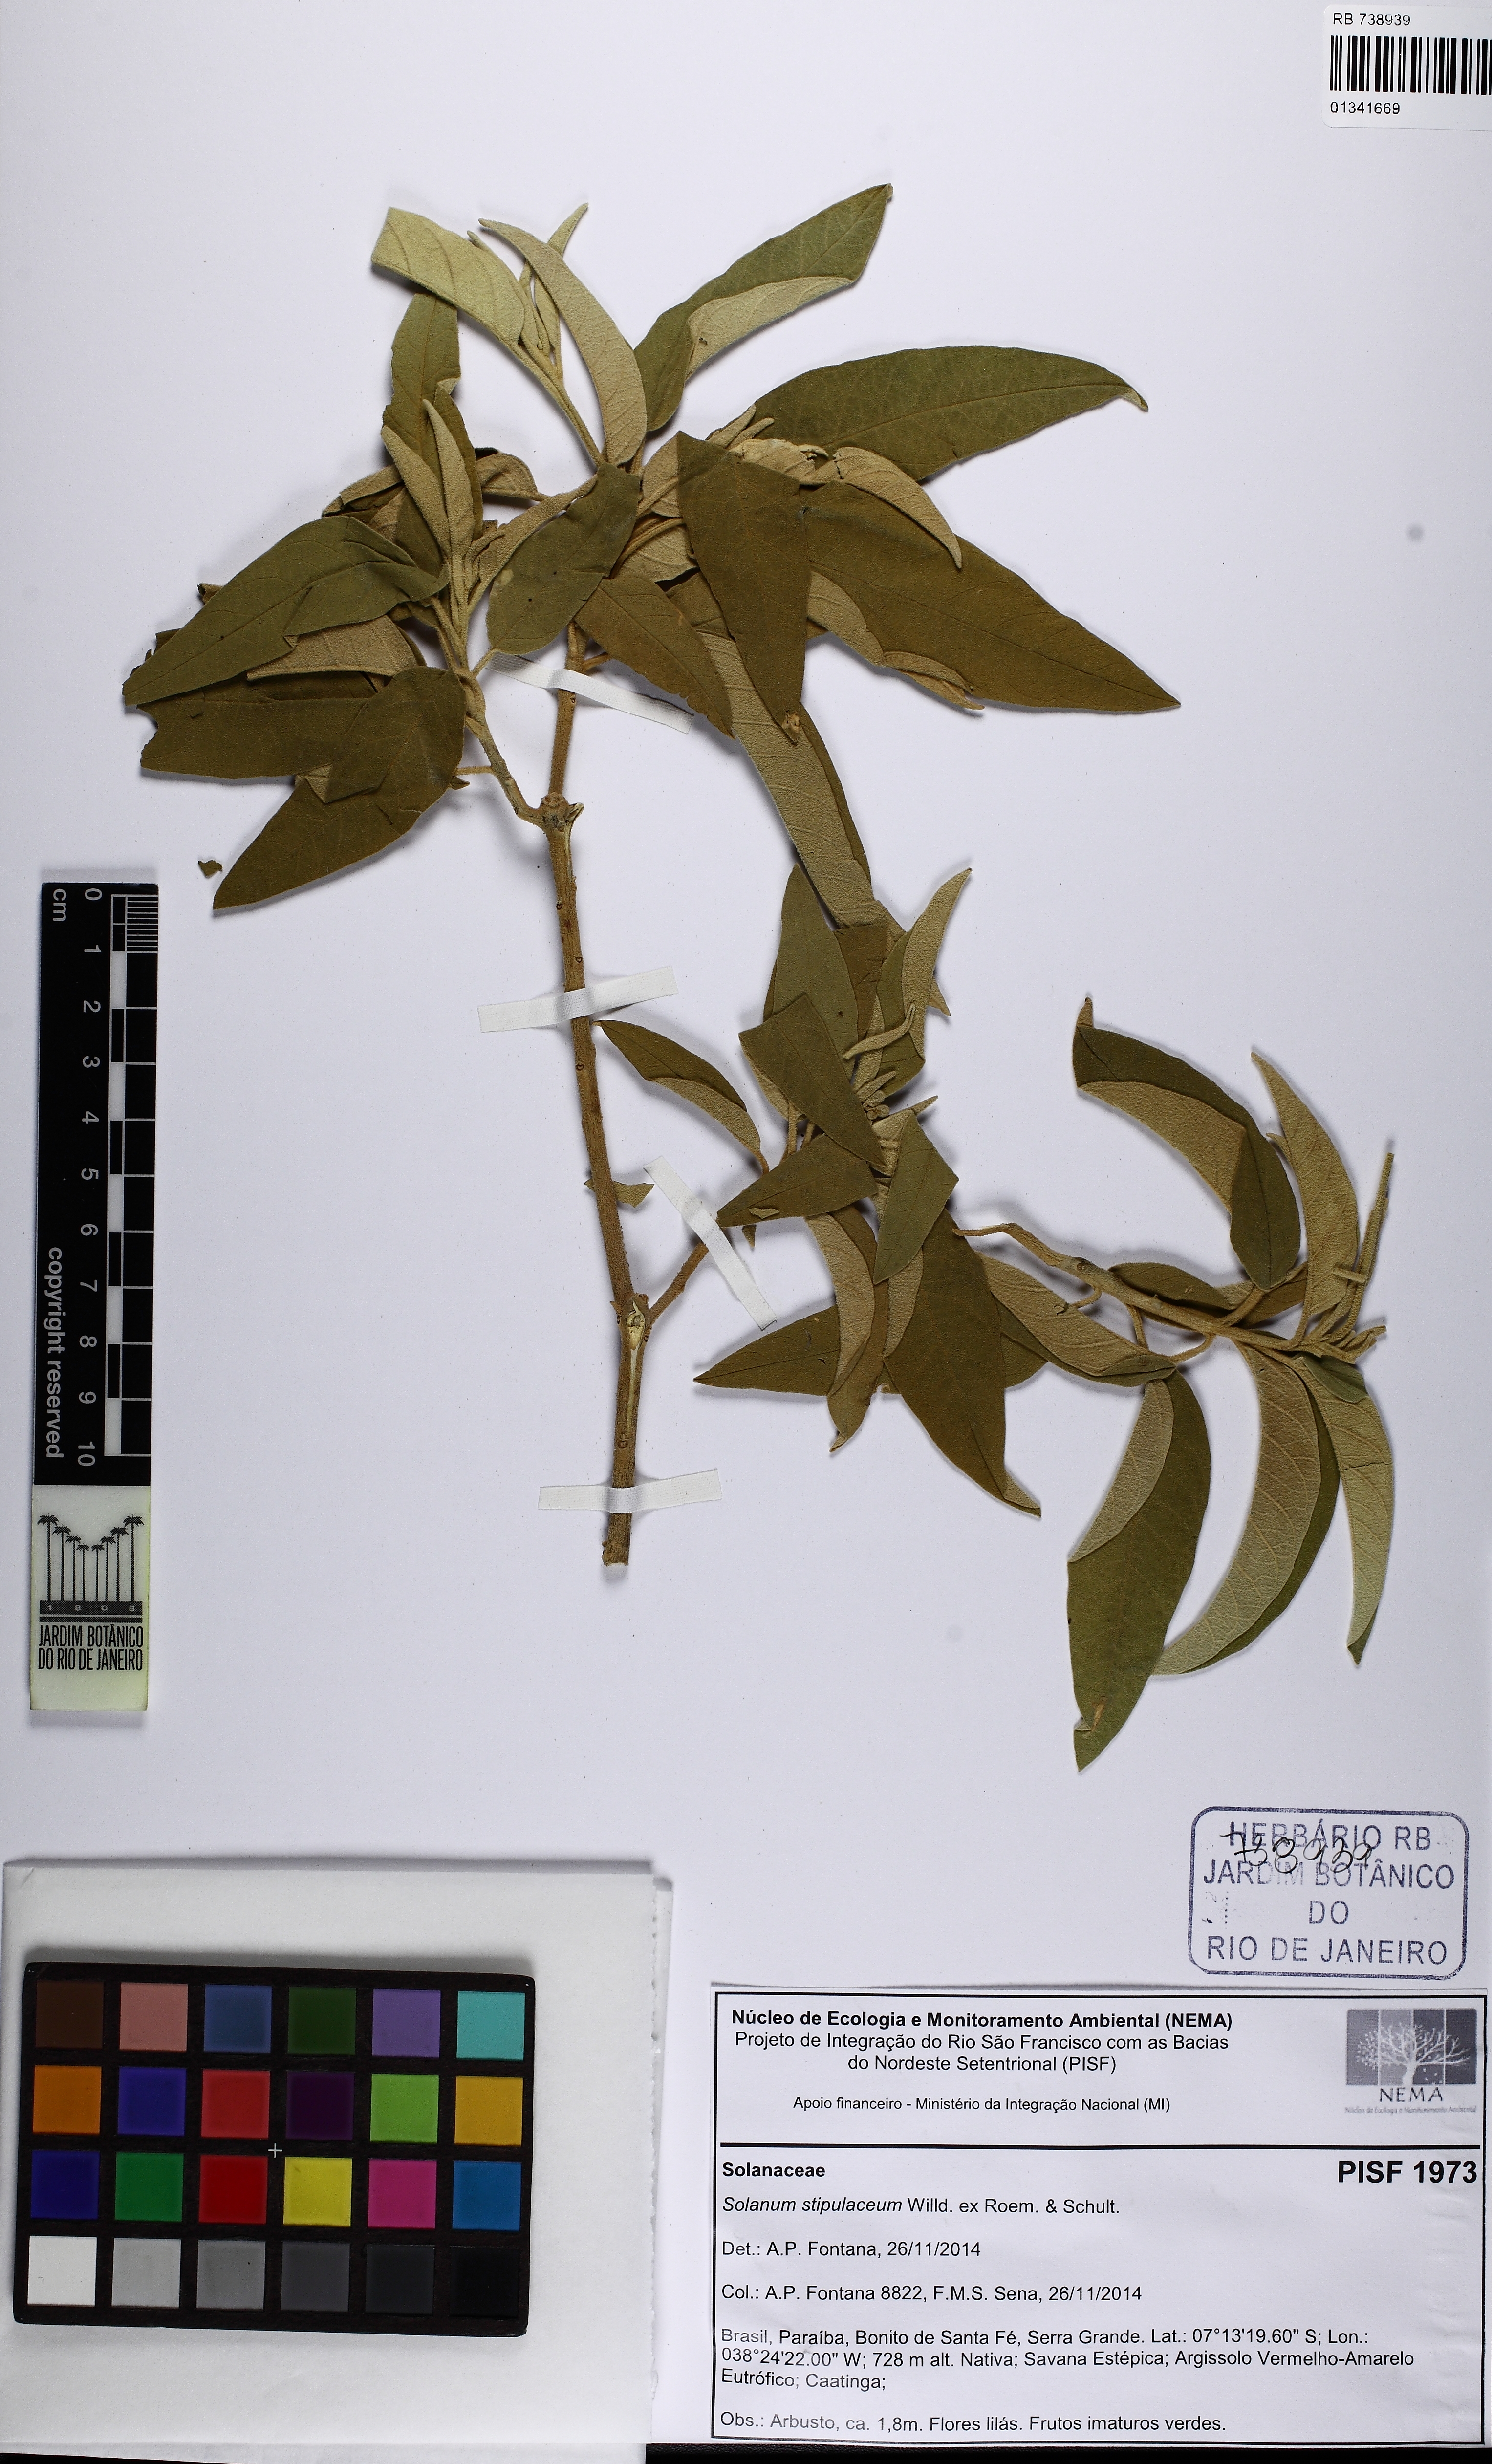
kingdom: Plantae
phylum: Tracheophyta
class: Magnoliopsida
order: Solanales
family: Solanaceae
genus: Solanum
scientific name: Solanum stipulaceum
